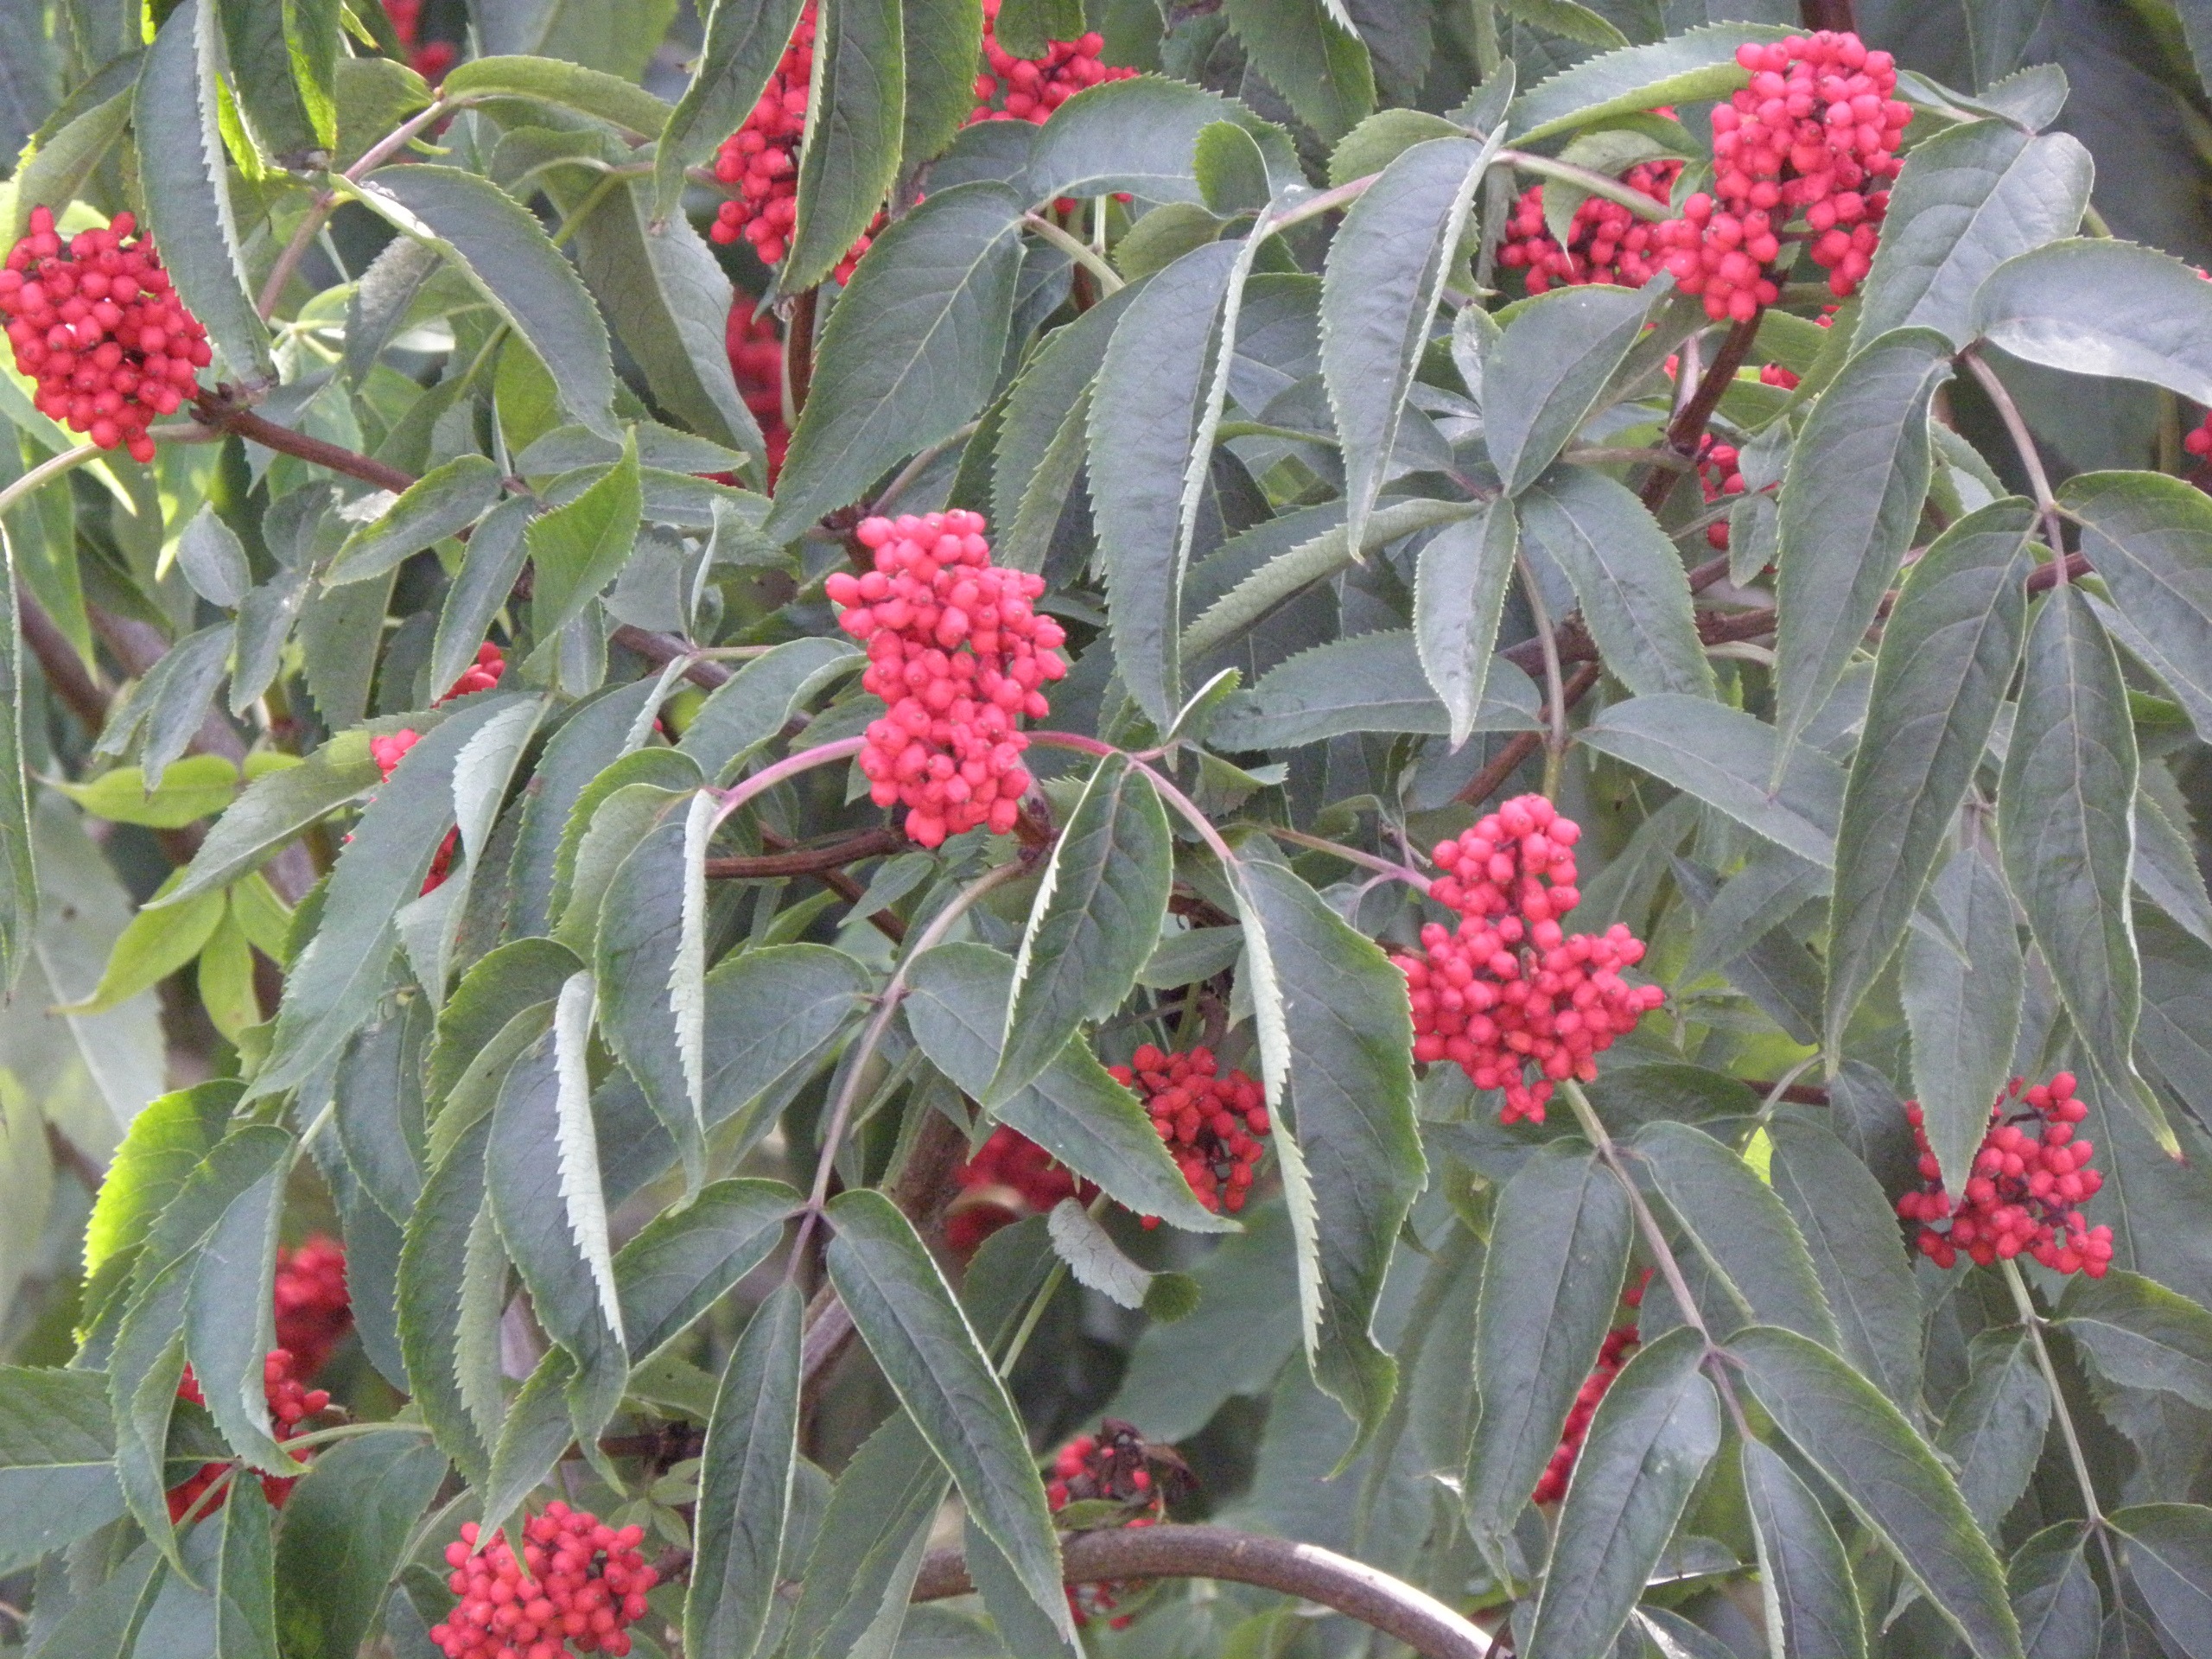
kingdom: Plantae
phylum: Tracheophyta
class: Magnoliopsida
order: Dipsacales
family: Viburnaceae
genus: Sambucus
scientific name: Sambucus racemosa
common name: Drue-hyld
